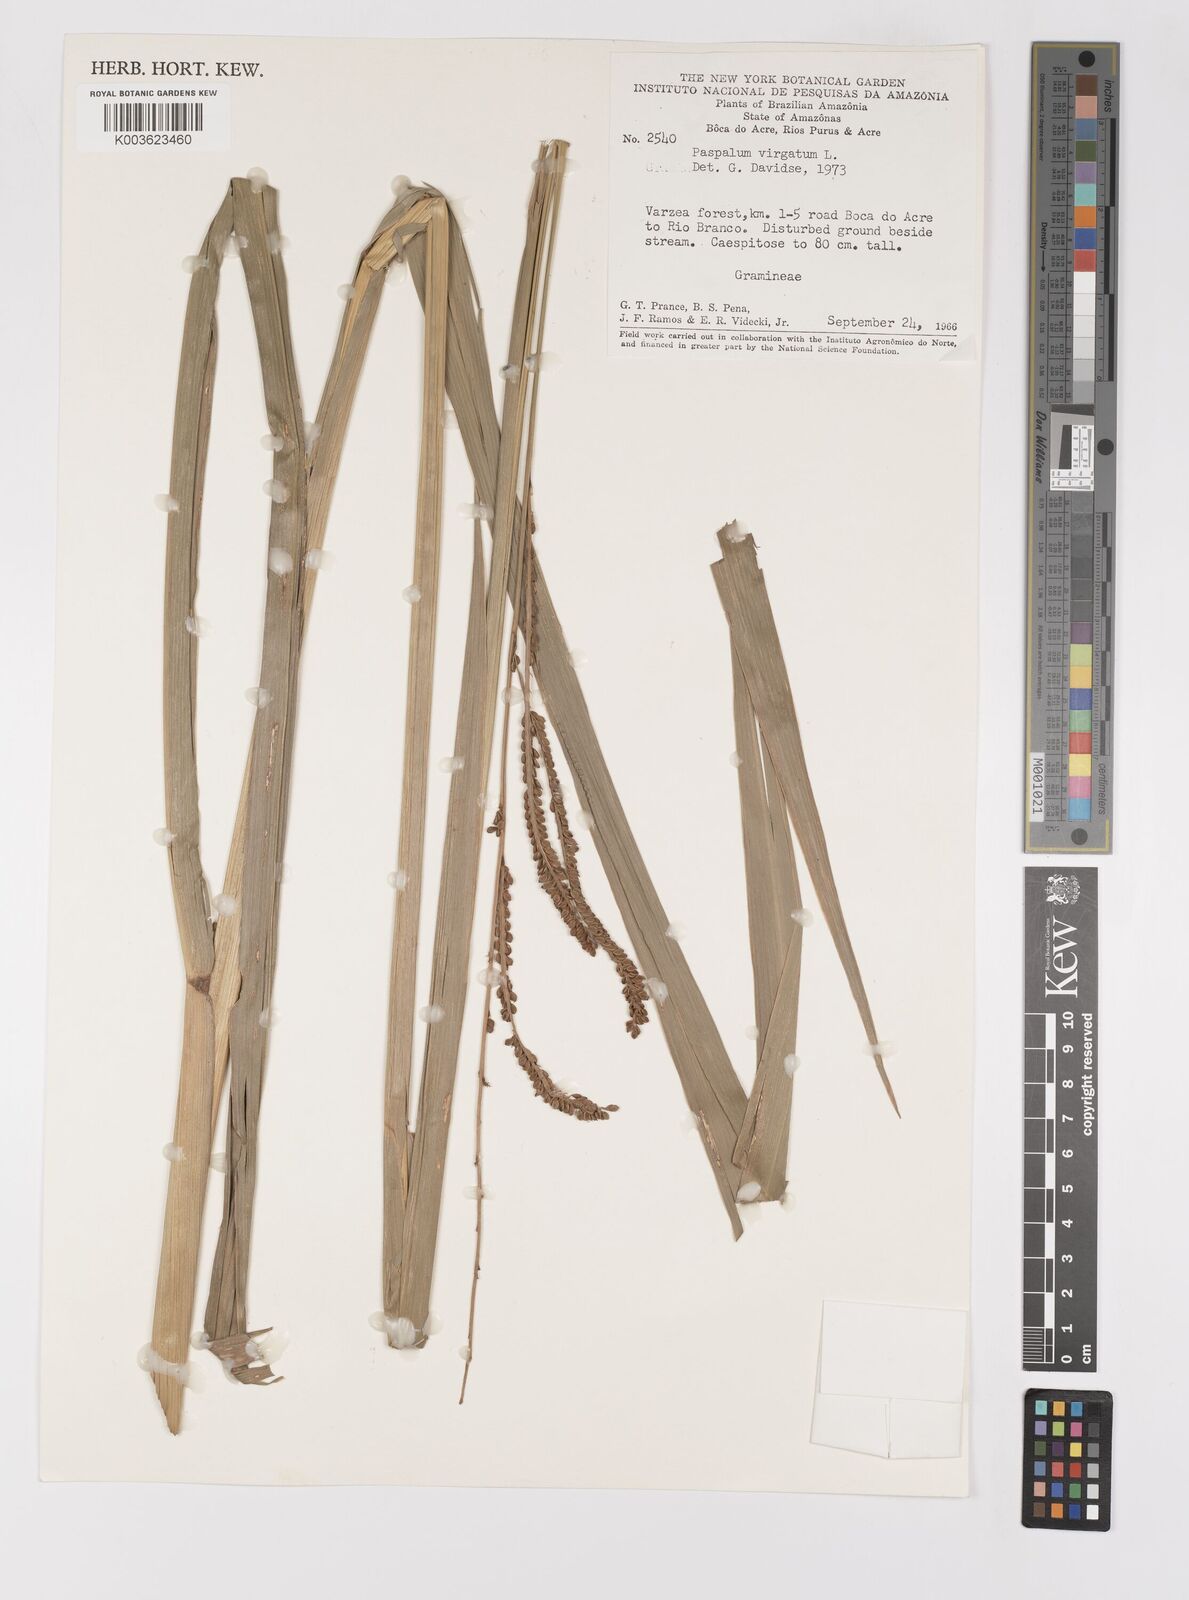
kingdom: Plantae
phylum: Tracheophyta
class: Liliopsida
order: Poales
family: Poaceae
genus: Paspalum
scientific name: Paspalum virgatum
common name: Talquezal
